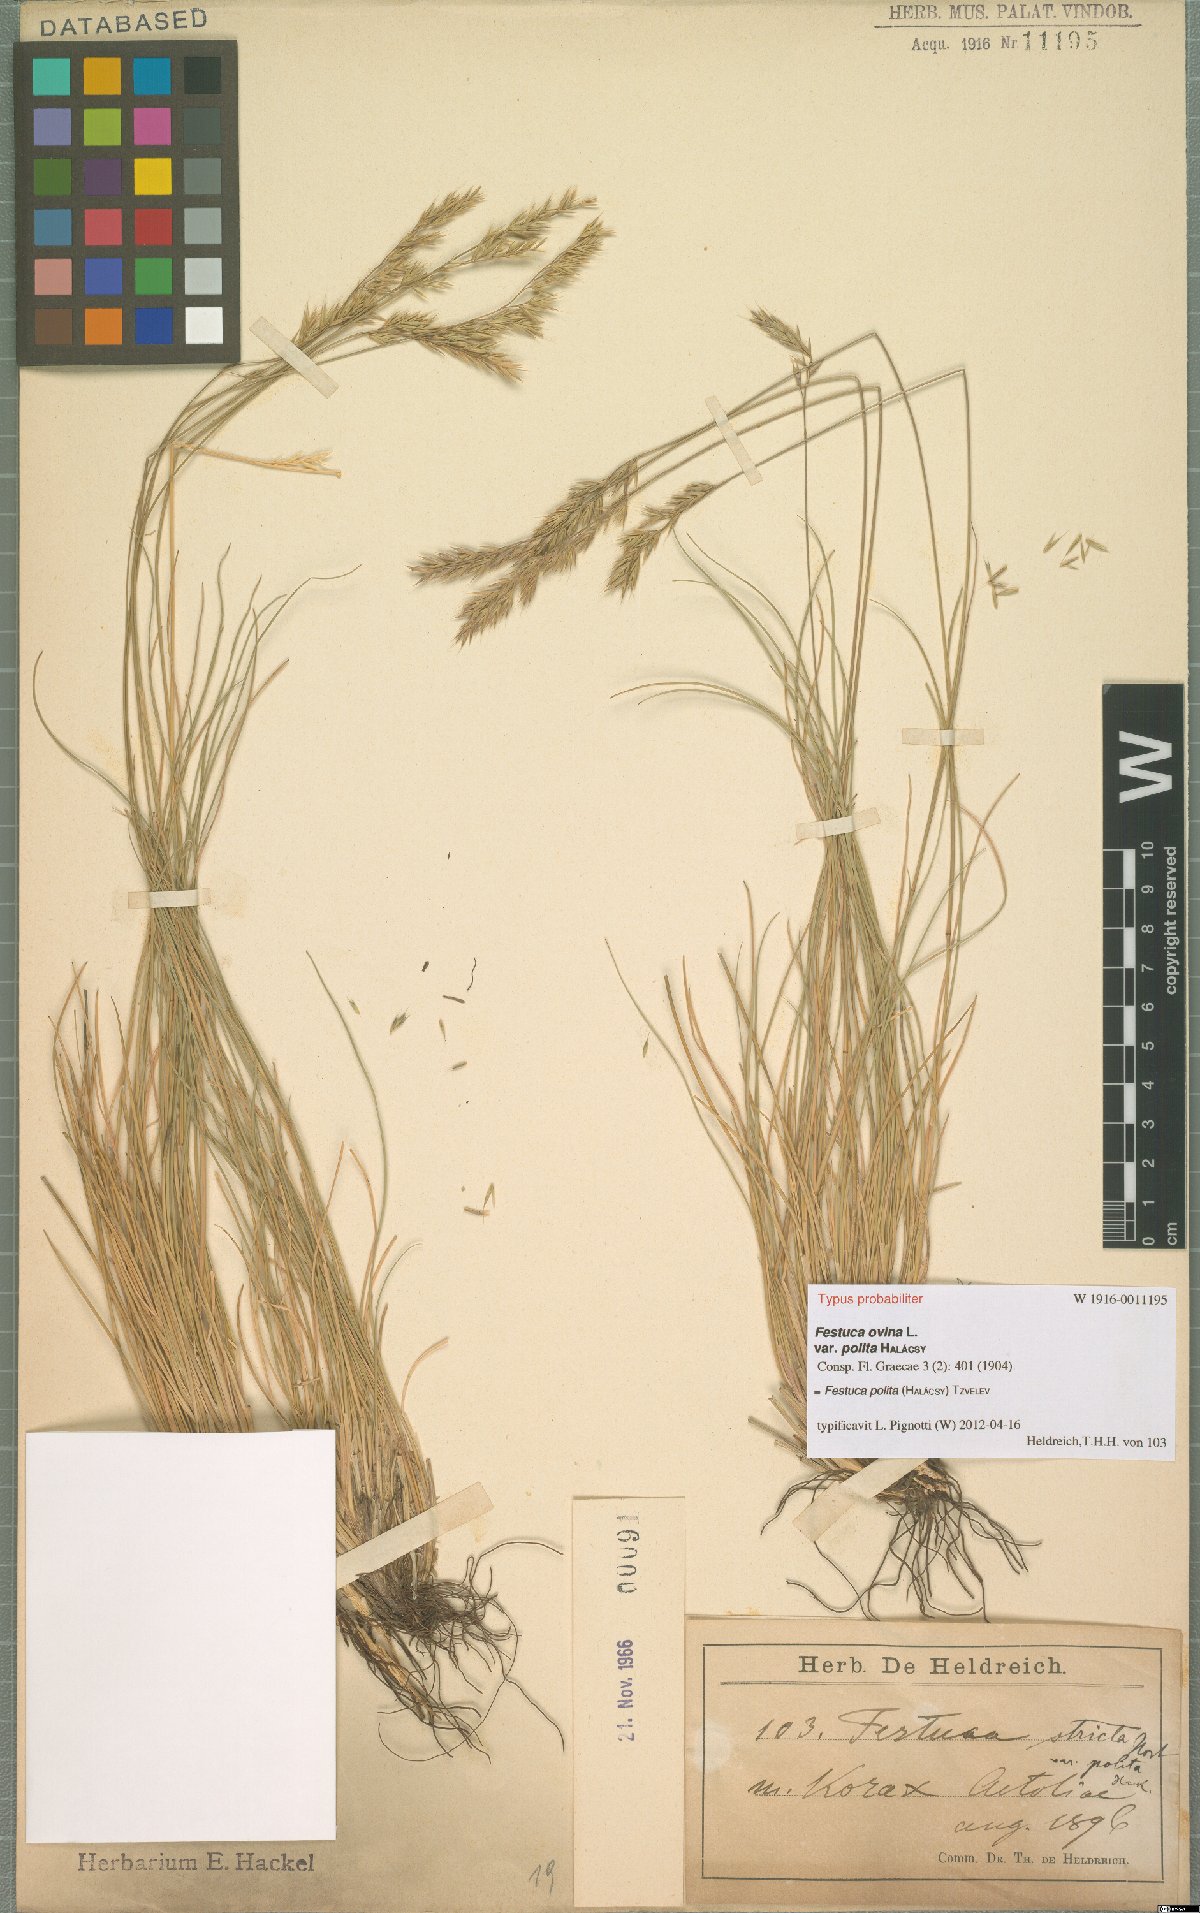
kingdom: Plantae
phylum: Tracheophyta
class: Liliopsida
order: Poales
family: Poaceae
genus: Festuca
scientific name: Festuca polita
